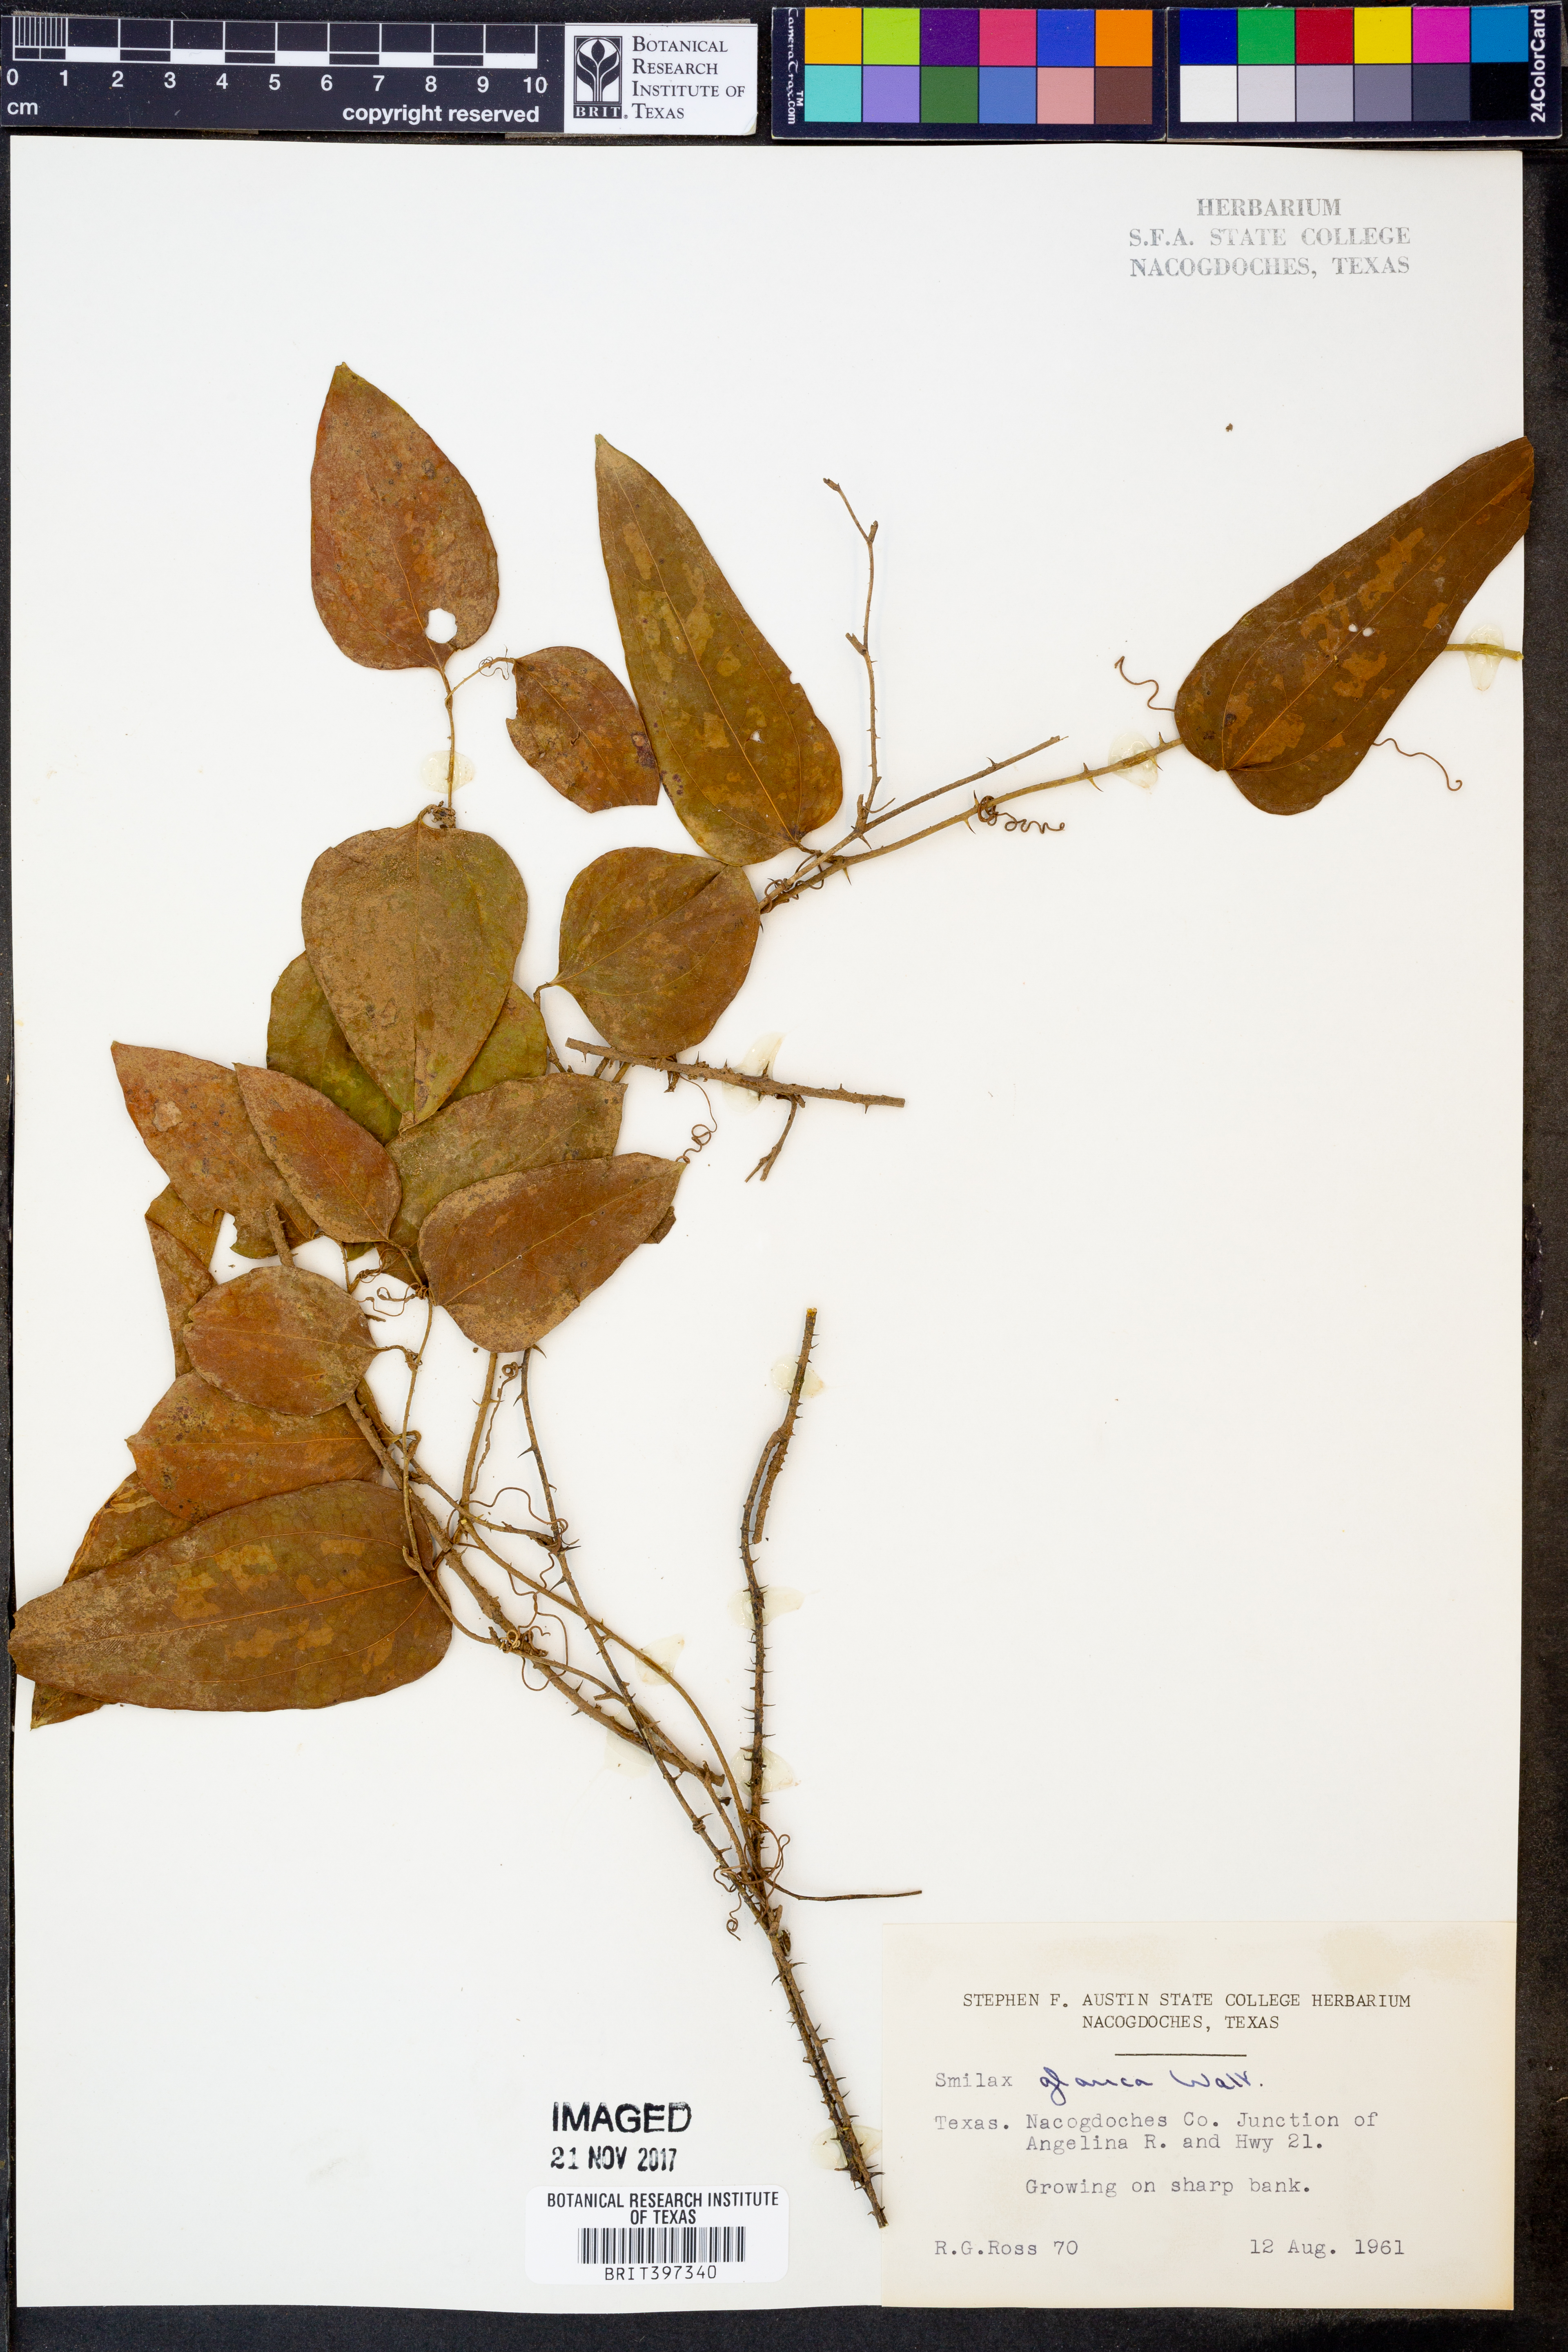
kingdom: Plantae
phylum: Tracheophyta
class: Liliopsida
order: Liliales
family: Smilacaceae
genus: Smilax
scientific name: Smilax glauca
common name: Cat greenbrier
